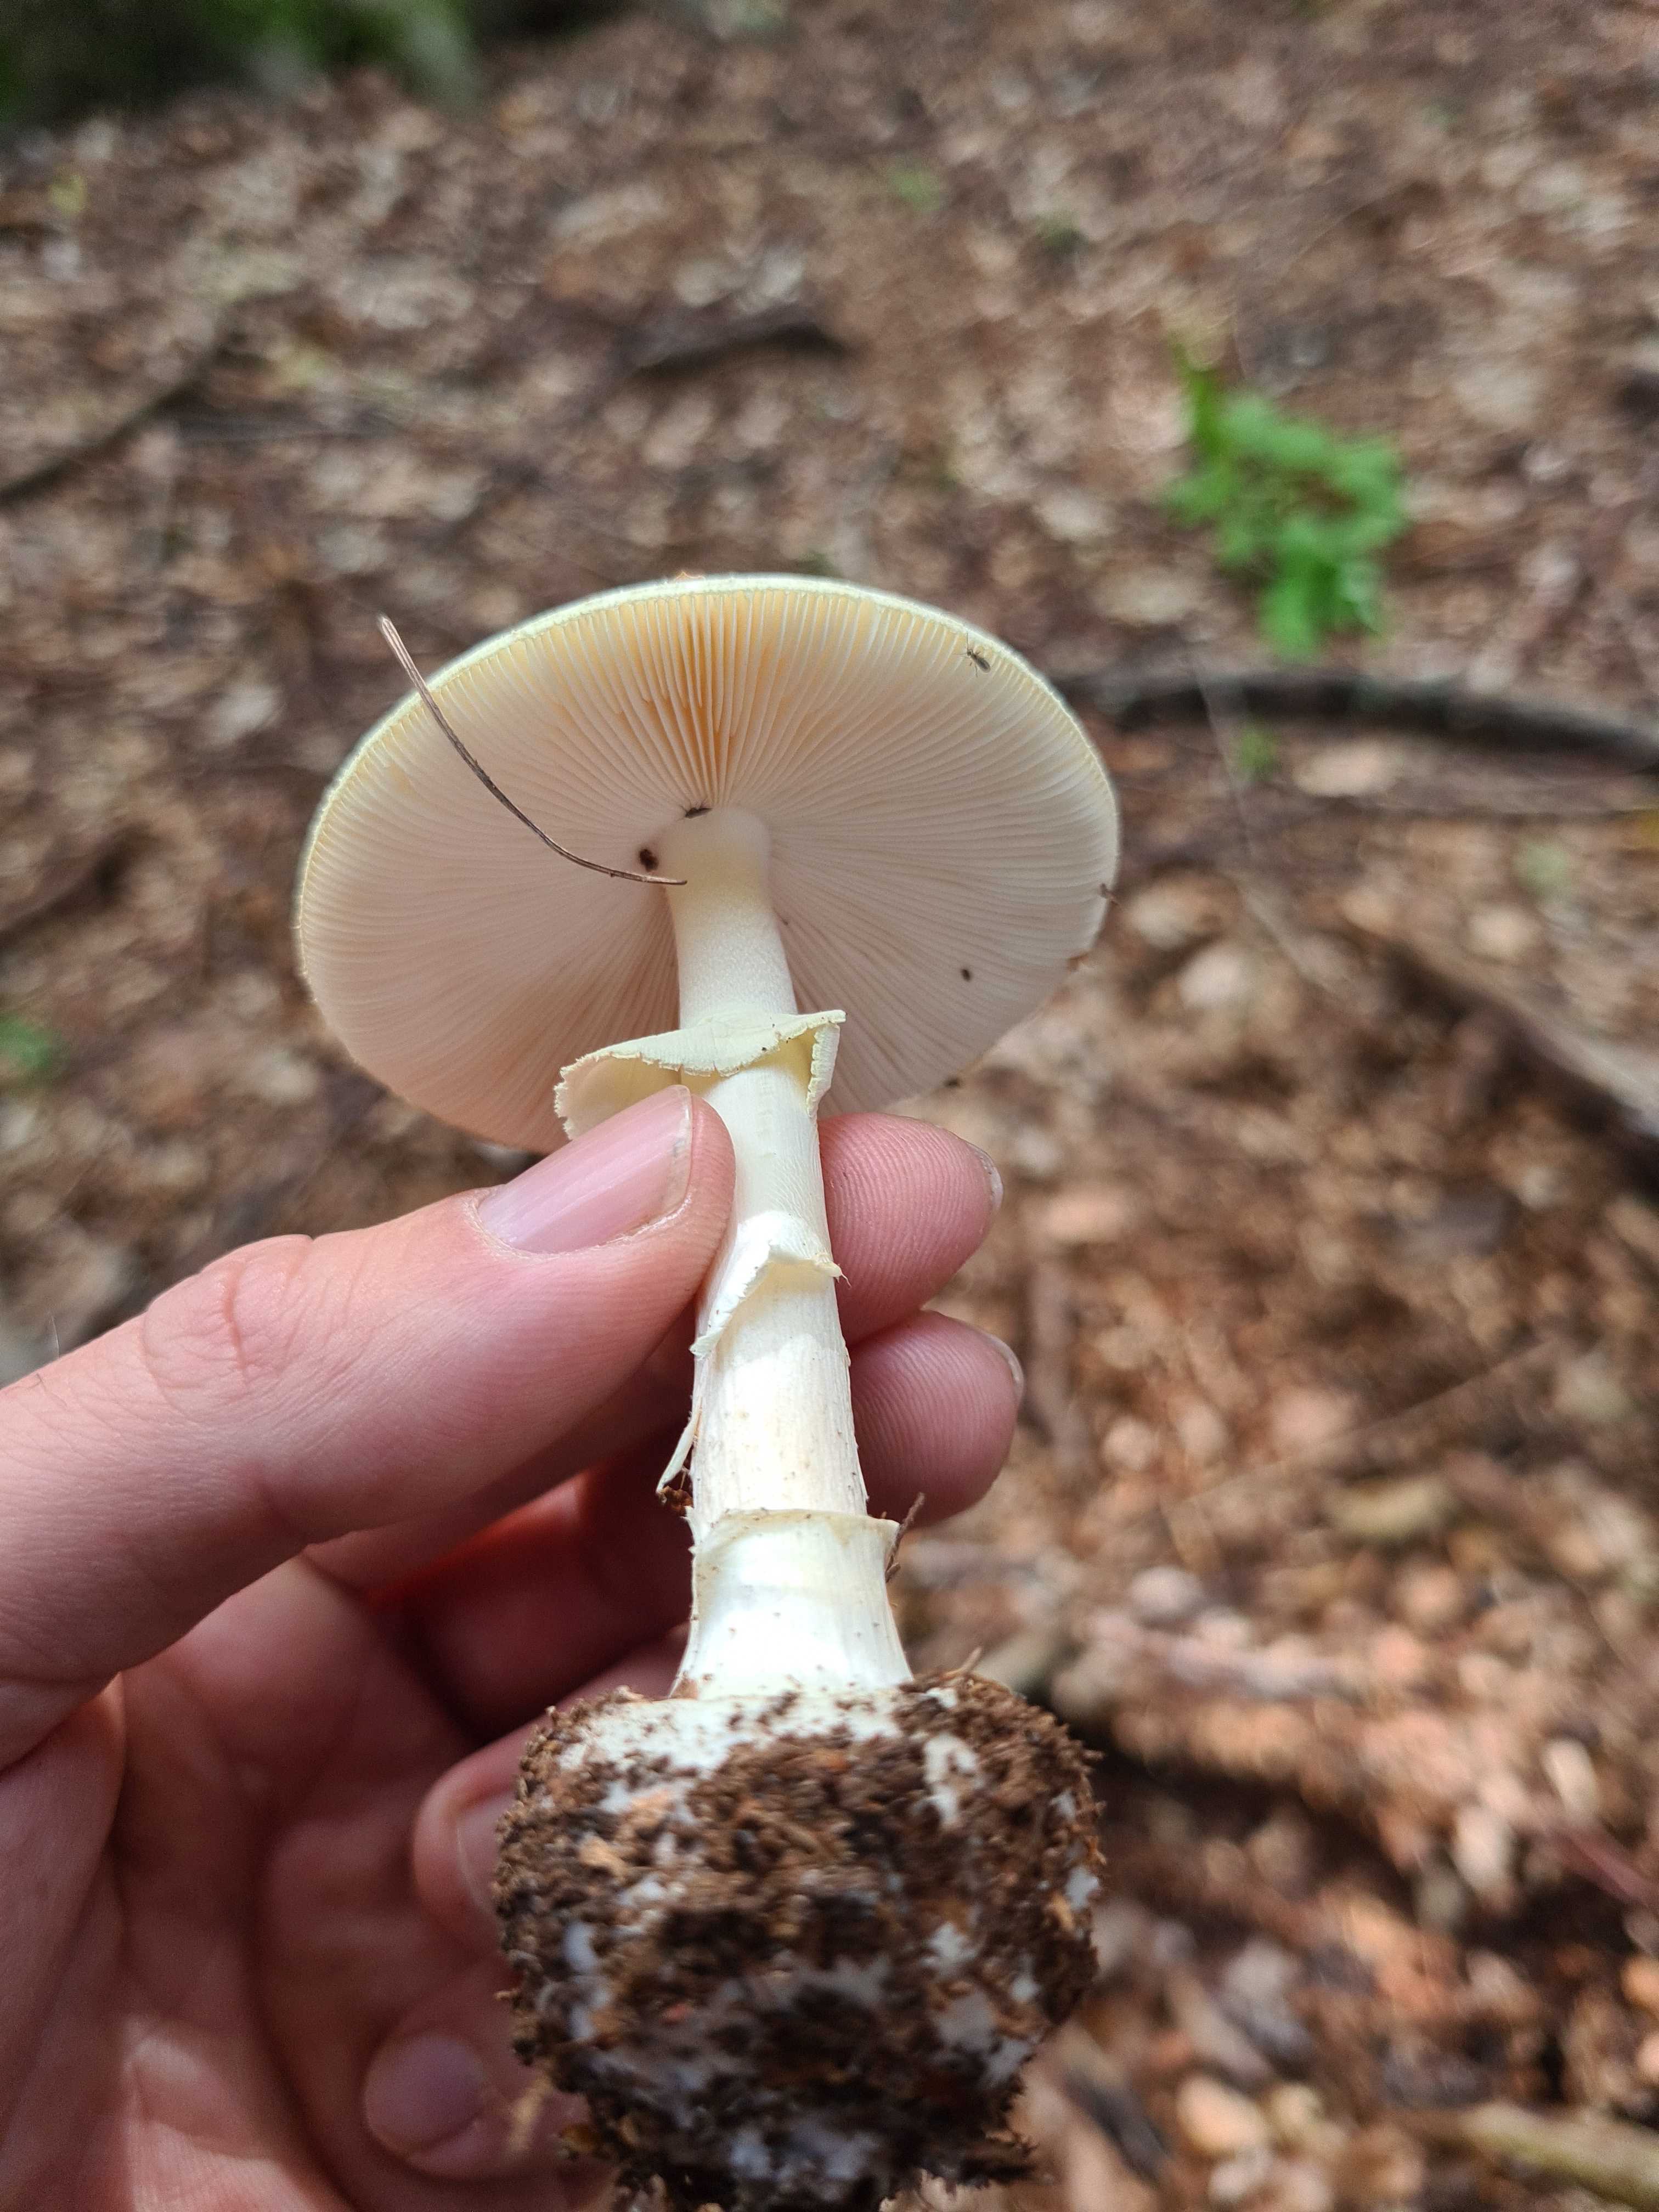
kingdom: Fungi
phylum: Basidiomycota
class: Agaricomycetes
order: Agaricales
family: Amanitaceae
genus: Amanita
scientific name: Amanita citrina
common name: kugleknoldet fluesvamp
